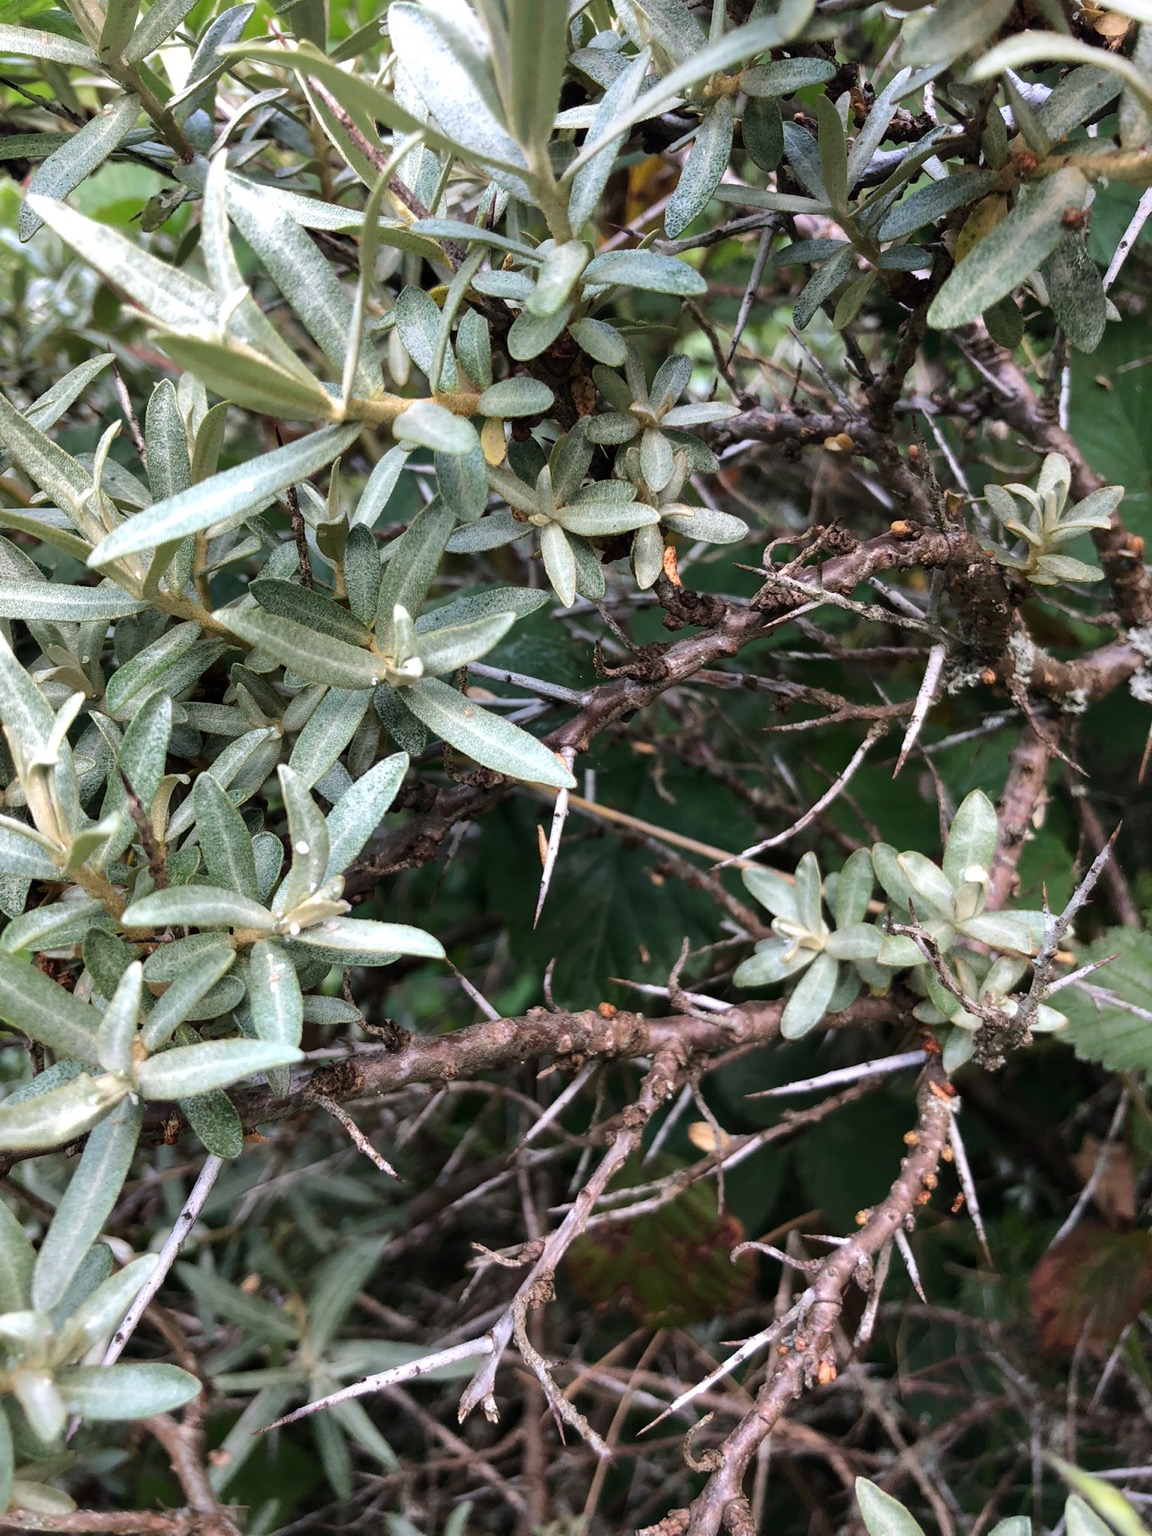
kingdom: Plantae
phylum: Tracheophyta
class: Magnoliopsida
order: Rosales
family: Elaeagnaceae
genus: Hippophae
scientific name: Hippophae rhamnoides
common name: Havtorn
